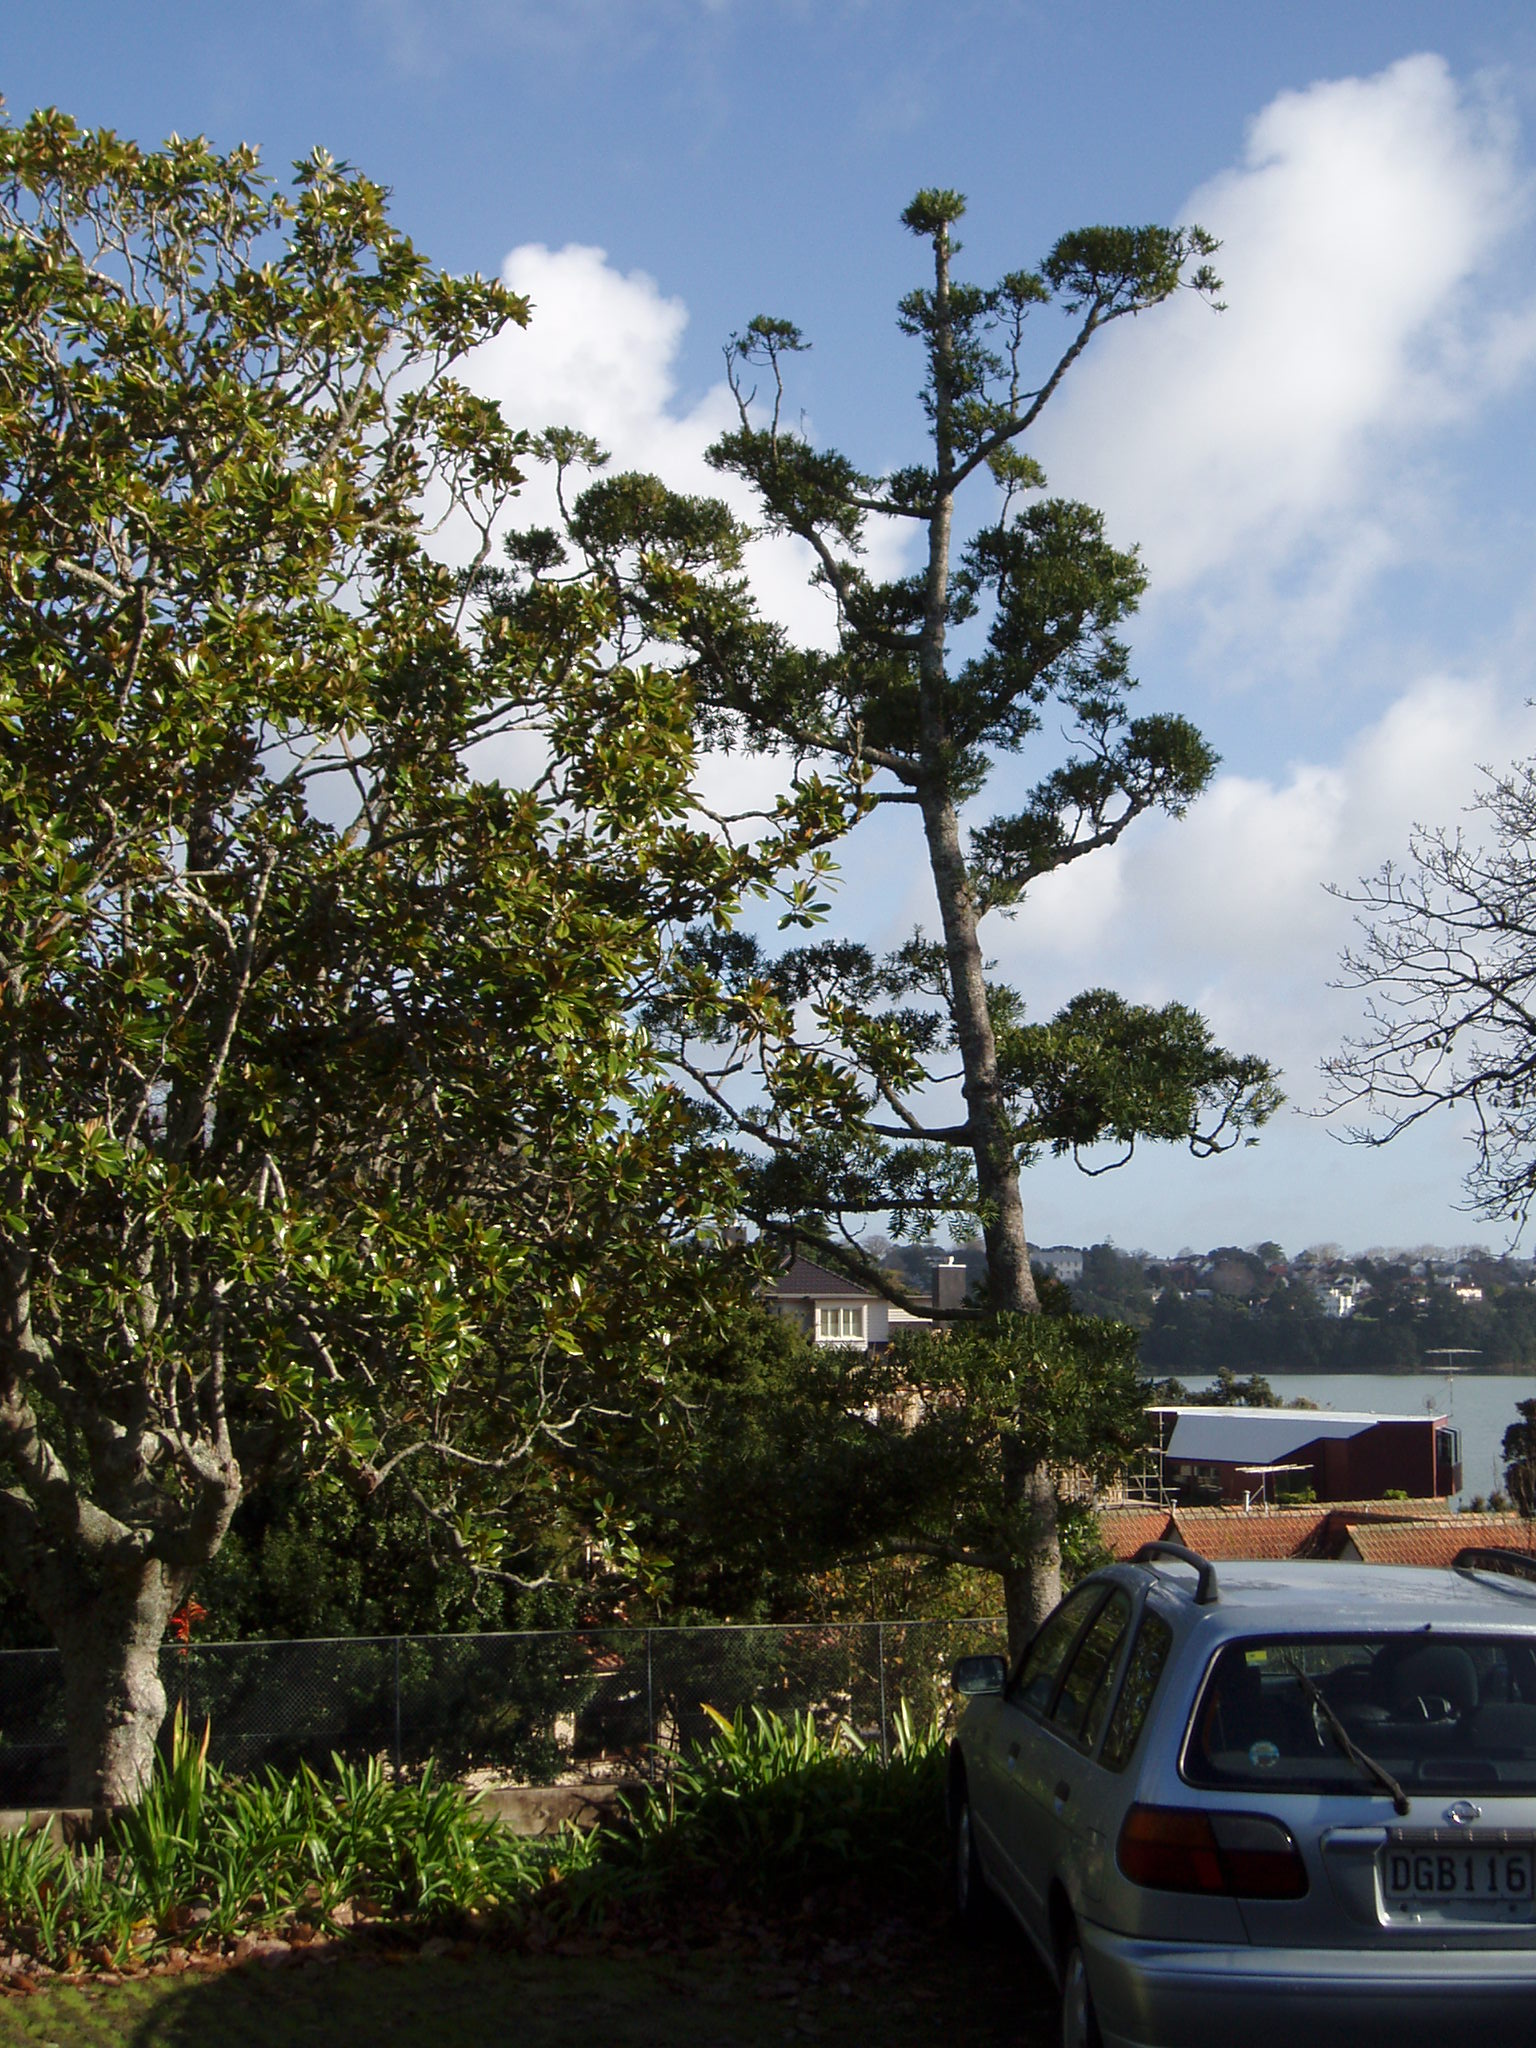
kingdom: Plantae
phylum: Tracheophyta
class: Pinopsida
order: Pinales
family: Araucariaceae
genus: Agathis
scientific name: Agathis moorei
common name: Moore's kauri
